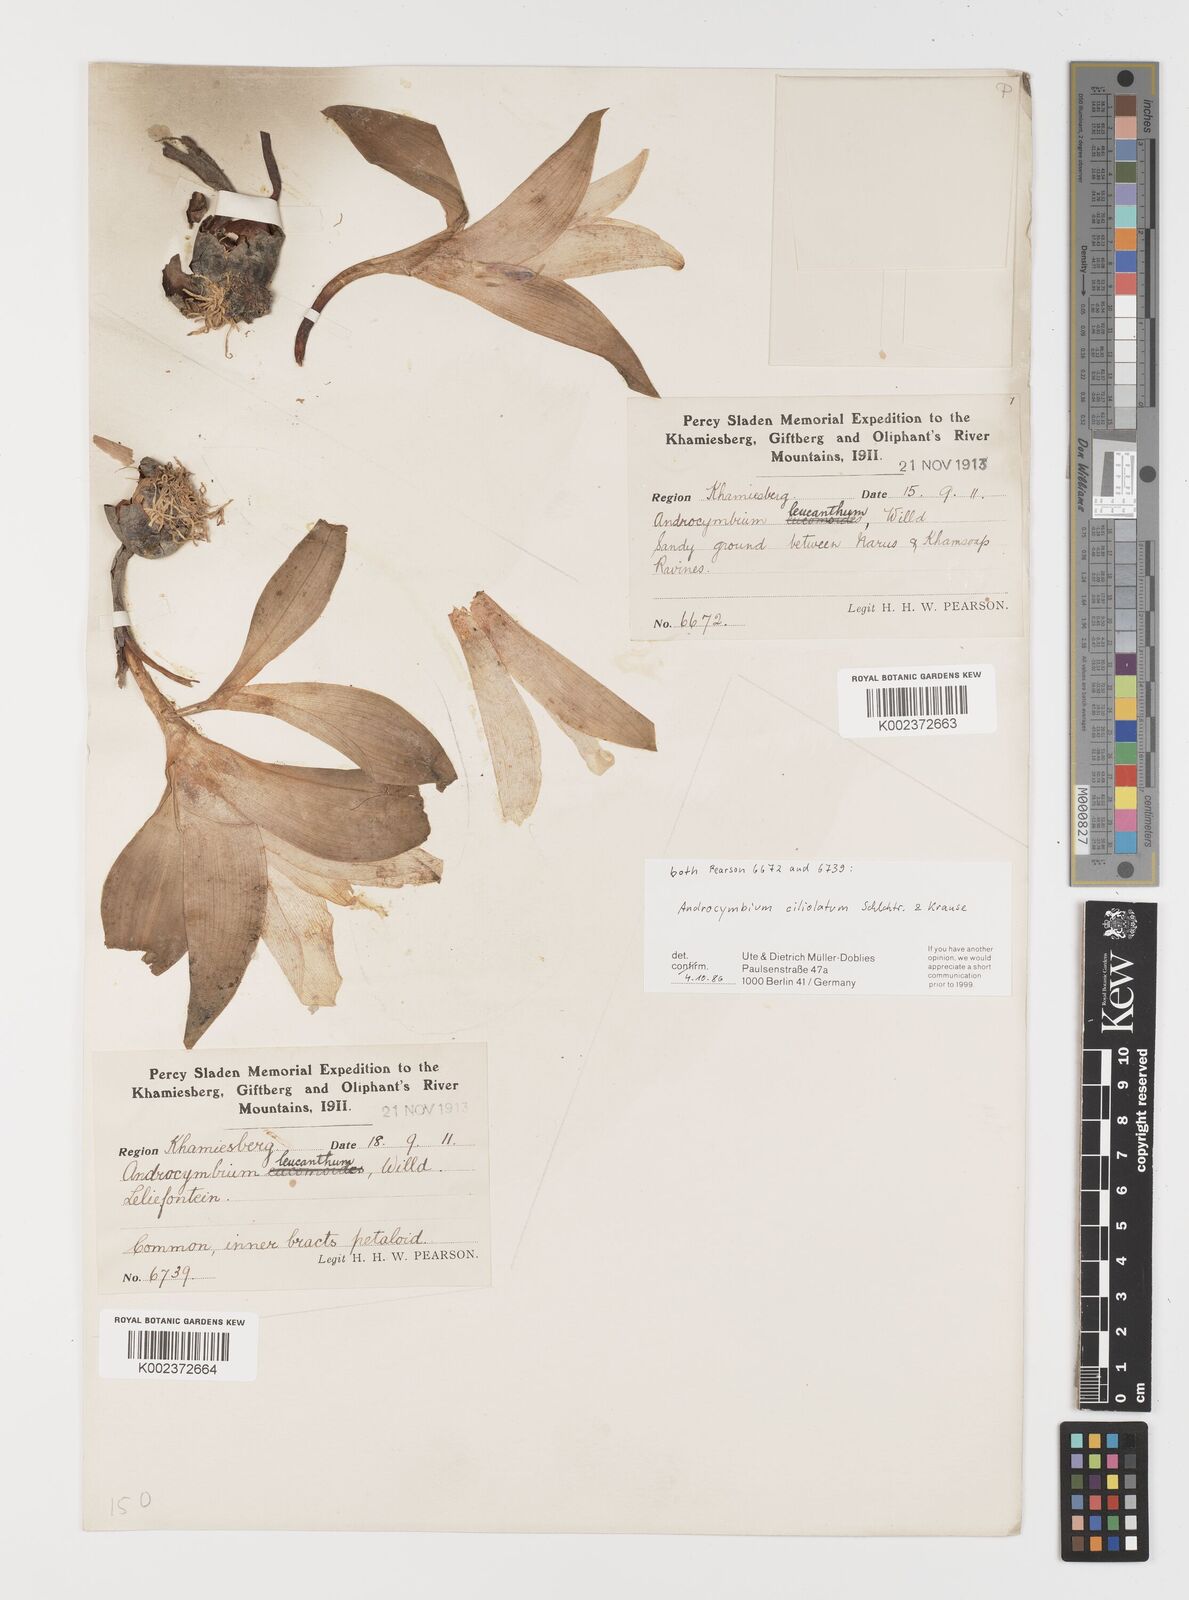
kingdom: Plantae
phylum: Tracheophyta
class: Liliopsida
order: Liliales
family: Colchicaceae
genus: Colchicum
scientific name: Colchicum capense
